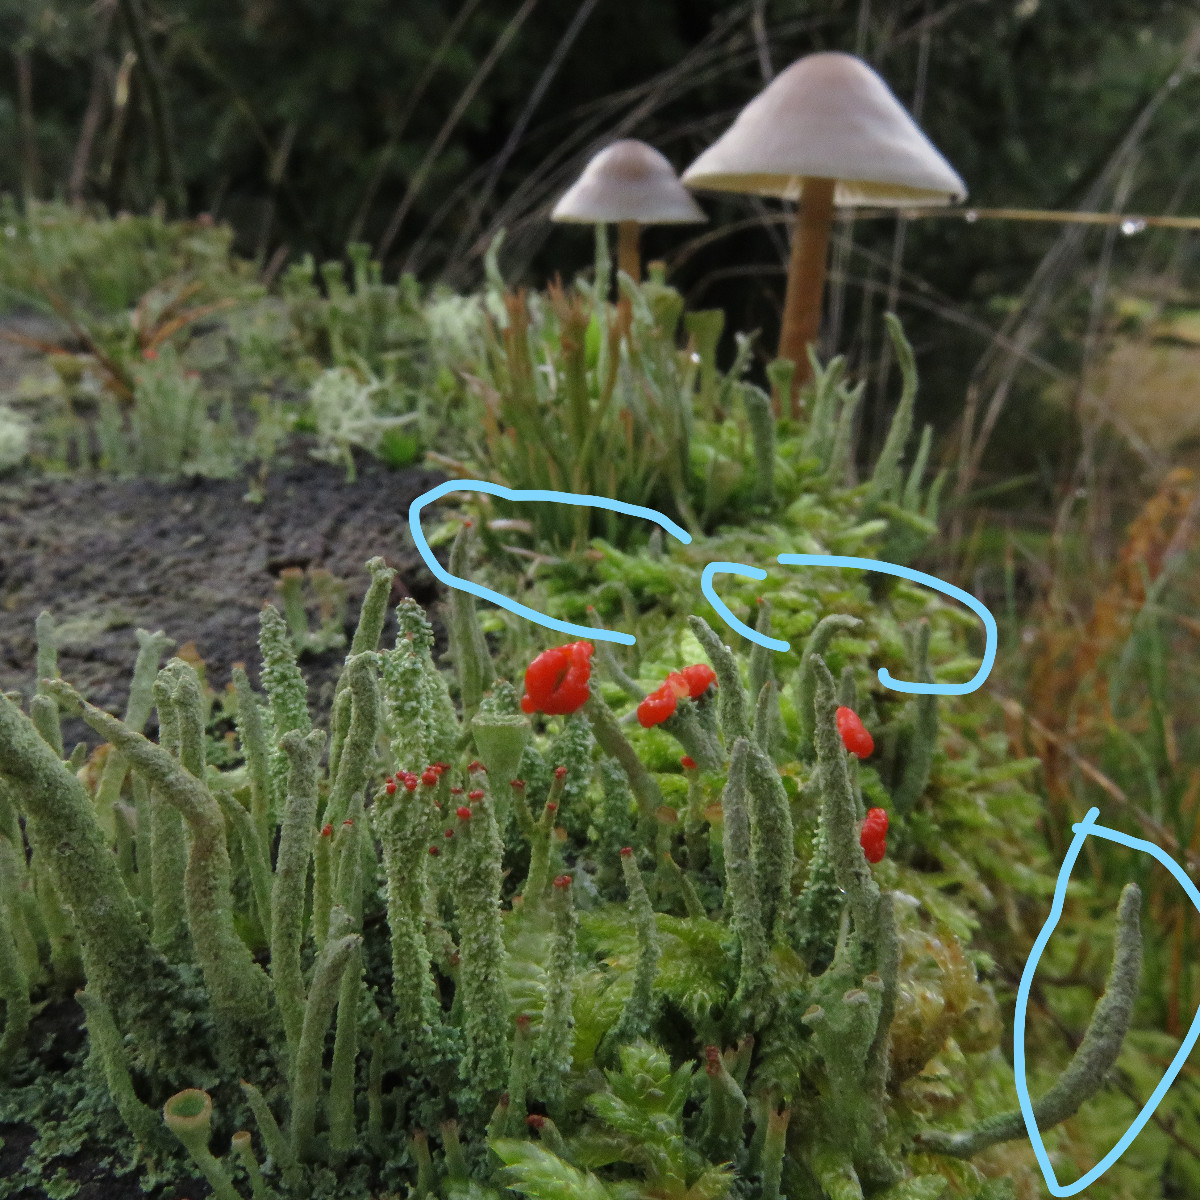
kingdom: Fungi
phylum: Ascomycota
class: Lecanoromycetes
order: Lecanorales
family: Cladoniaceae
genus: Cladonia
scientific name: Cladonia floerkeana
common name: lakrød bægerlav
